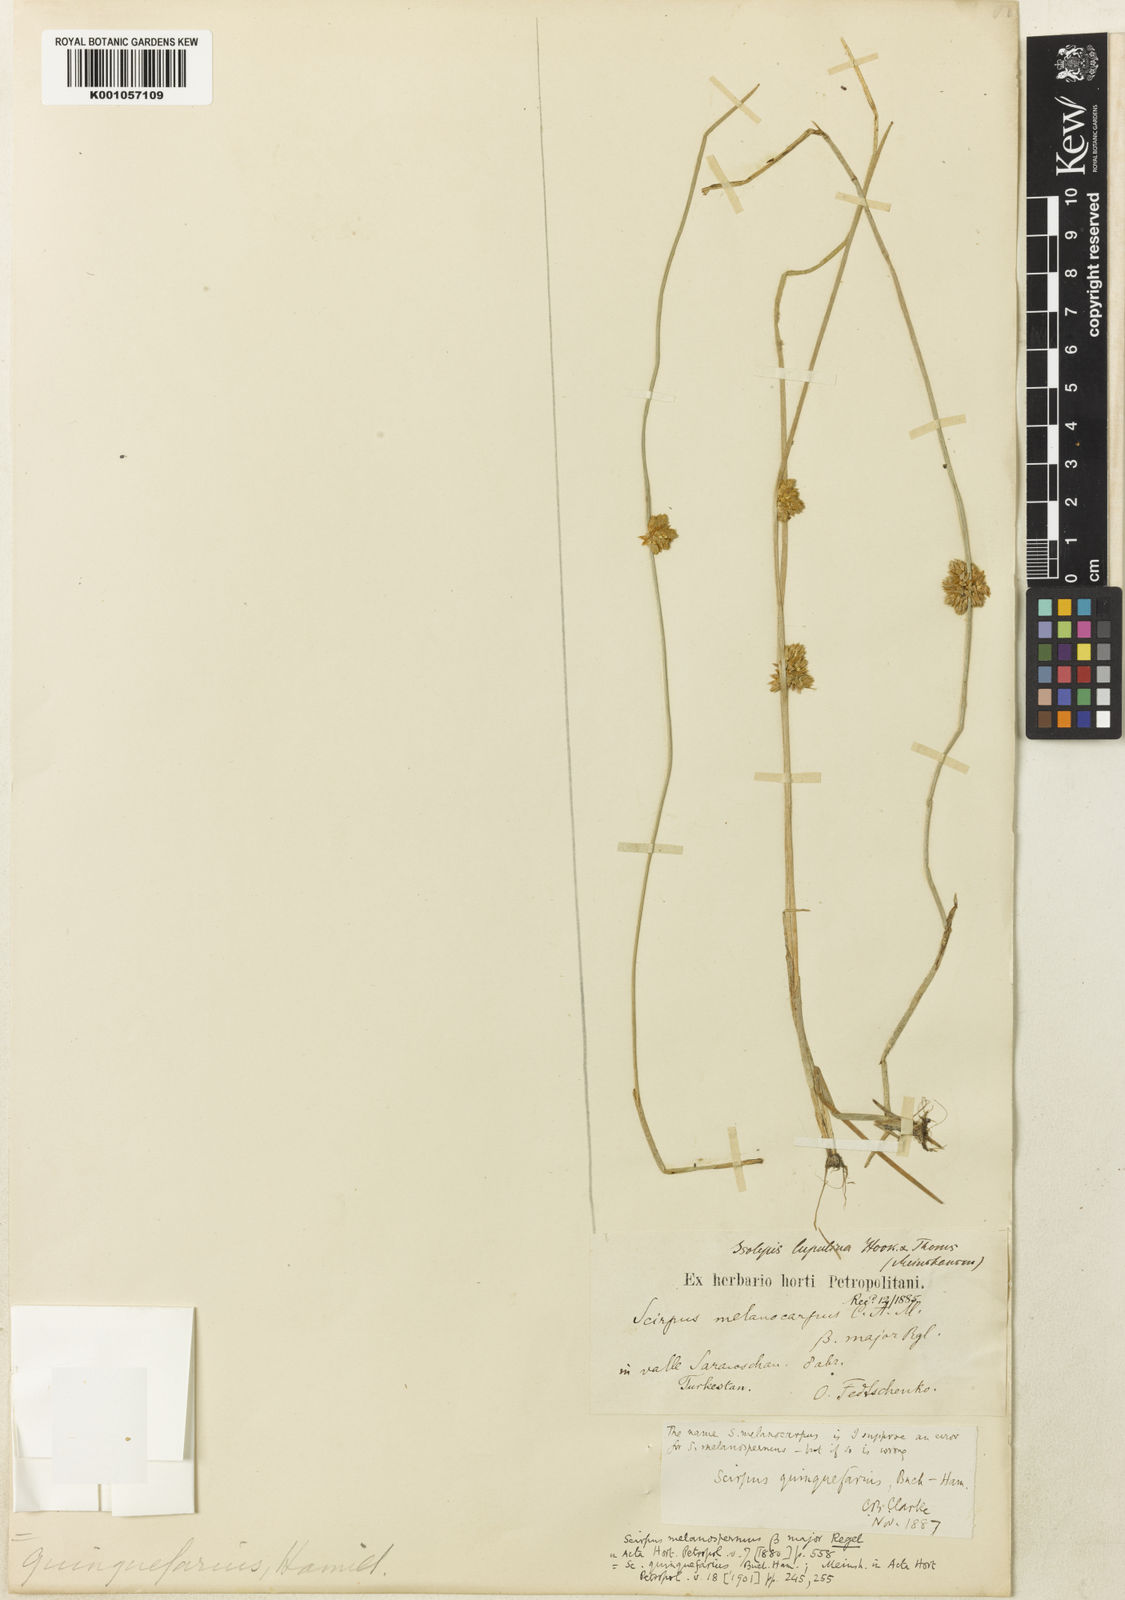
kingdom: Plantae
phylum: Tracheophyta
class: Liliopsida
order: Poales
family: Cyperaceae
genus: Schoenoplectiella
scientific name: Schoenoplectiella roylei
